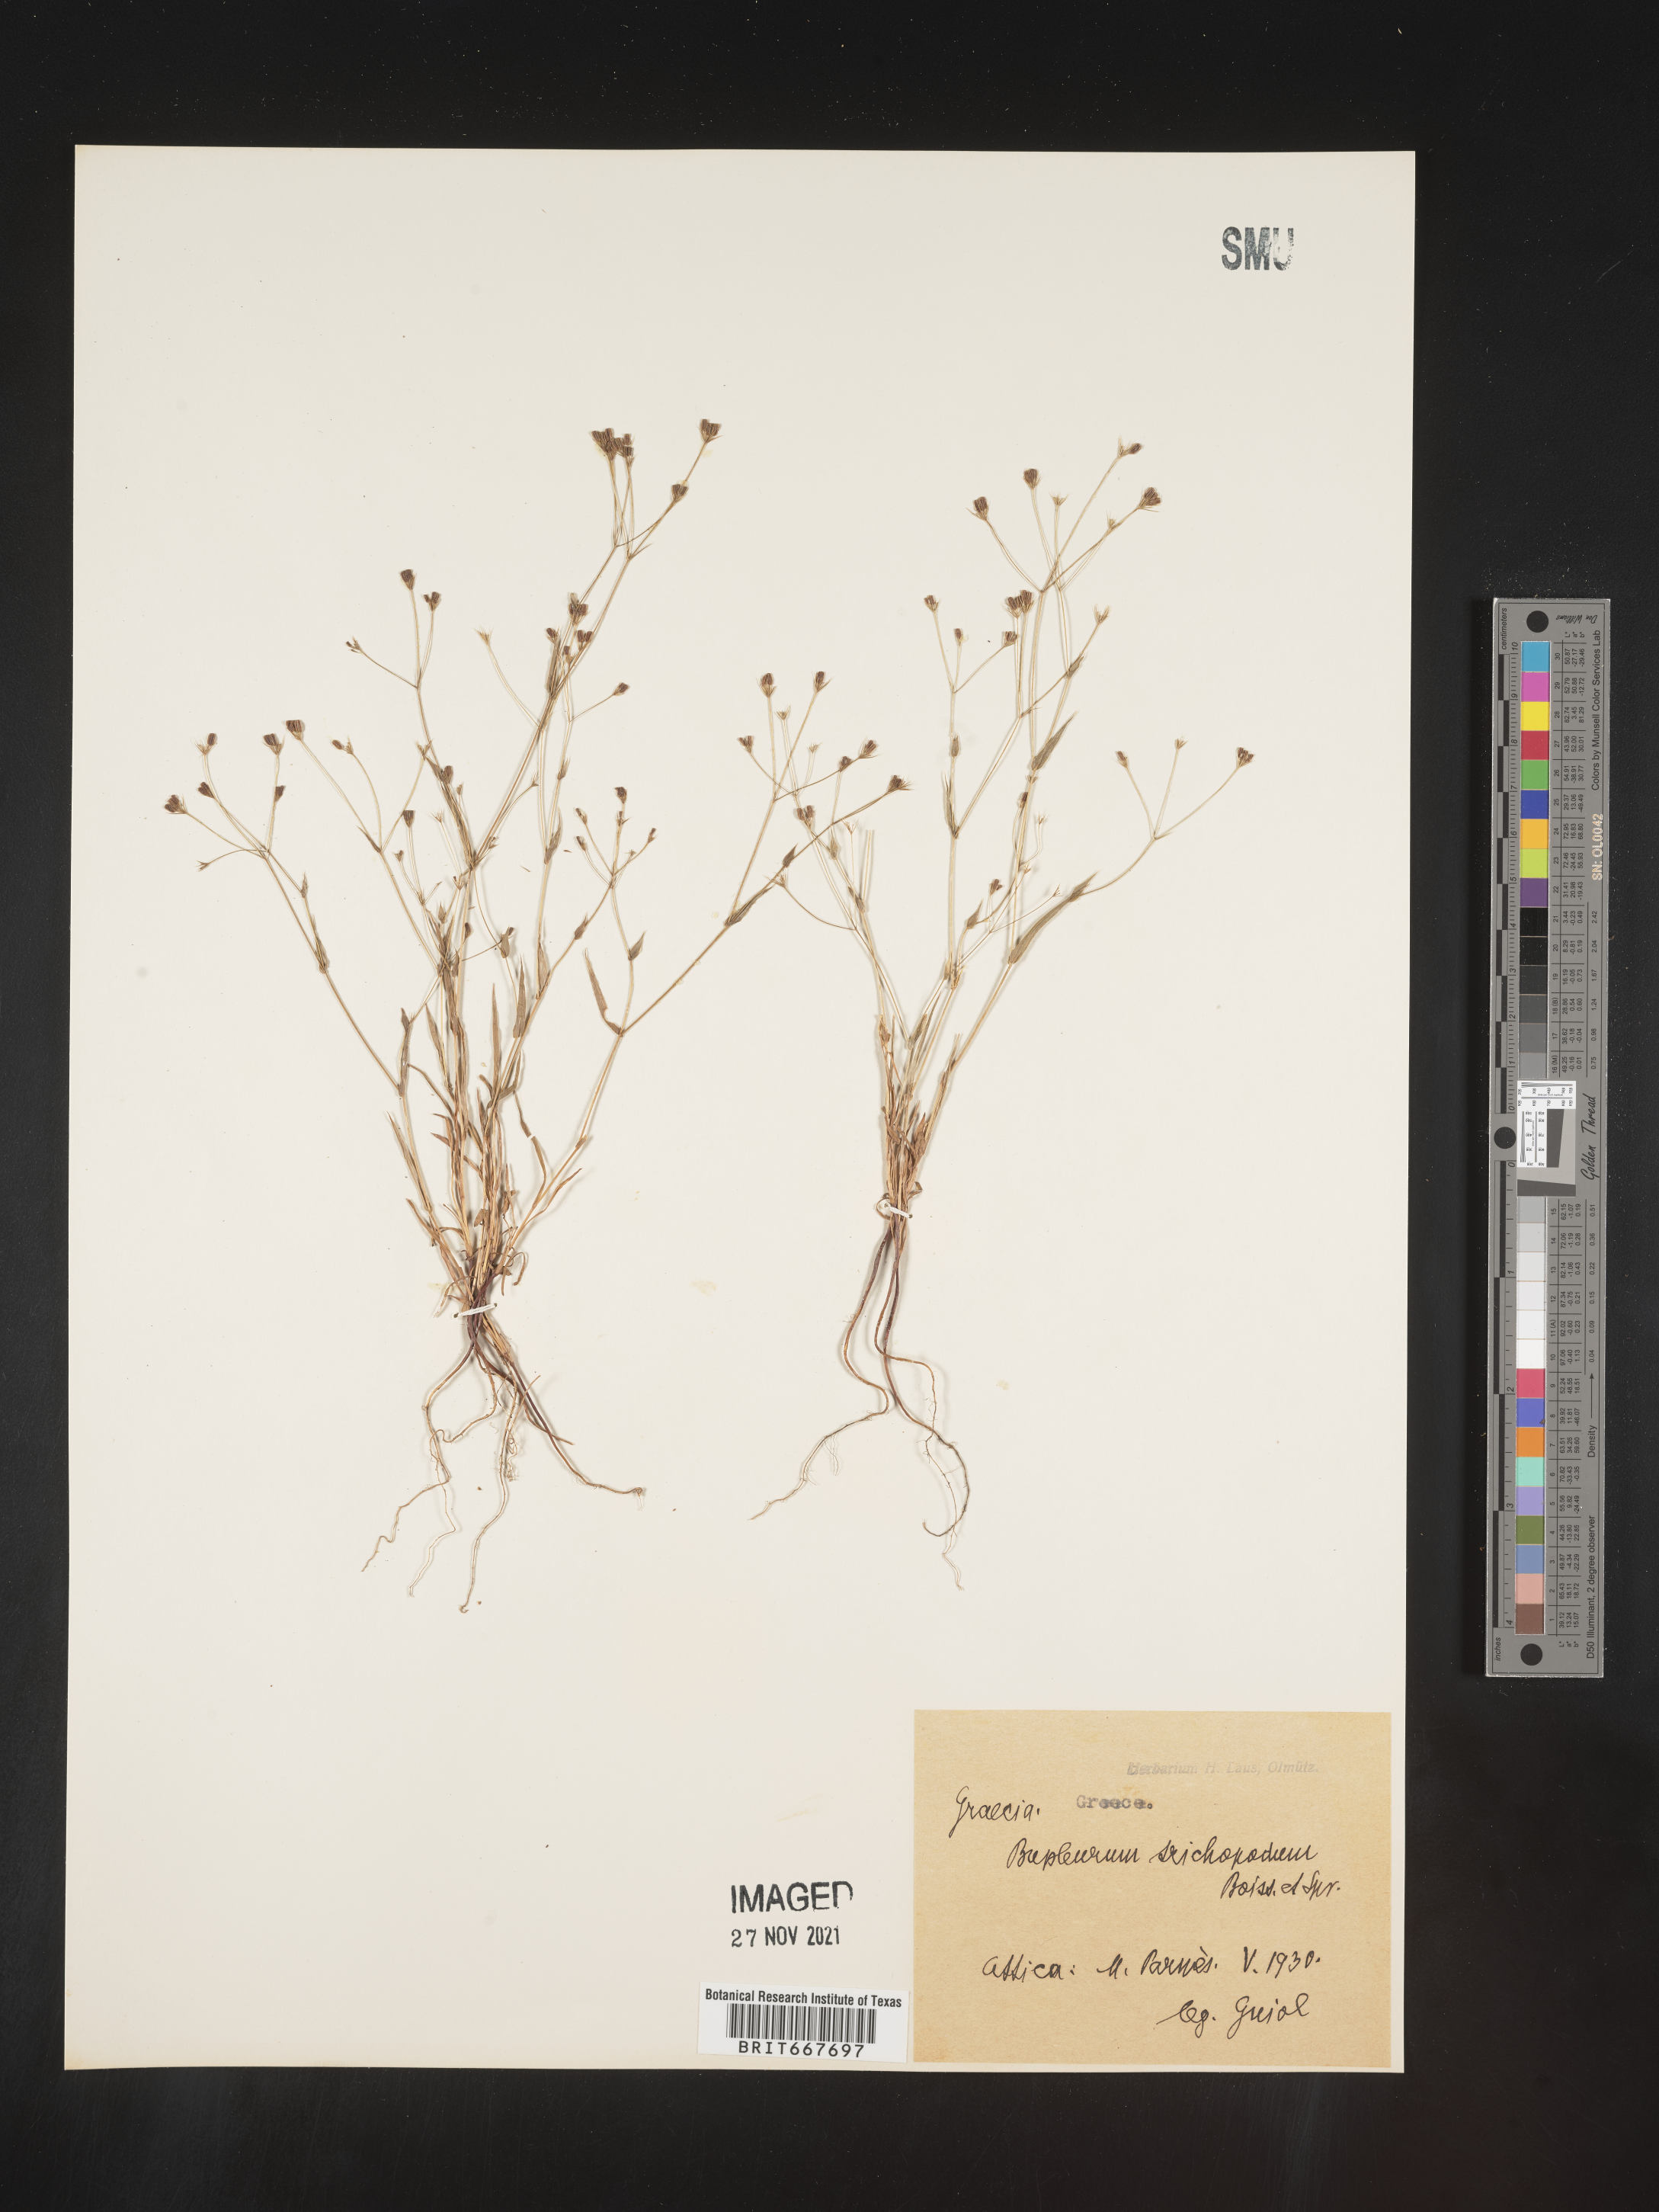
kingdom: Plantae
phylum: Tracheophyta
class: Magnoliopsida
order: Apiales
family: Apiaceae
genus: Bupleurum
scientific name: Bupleurum
